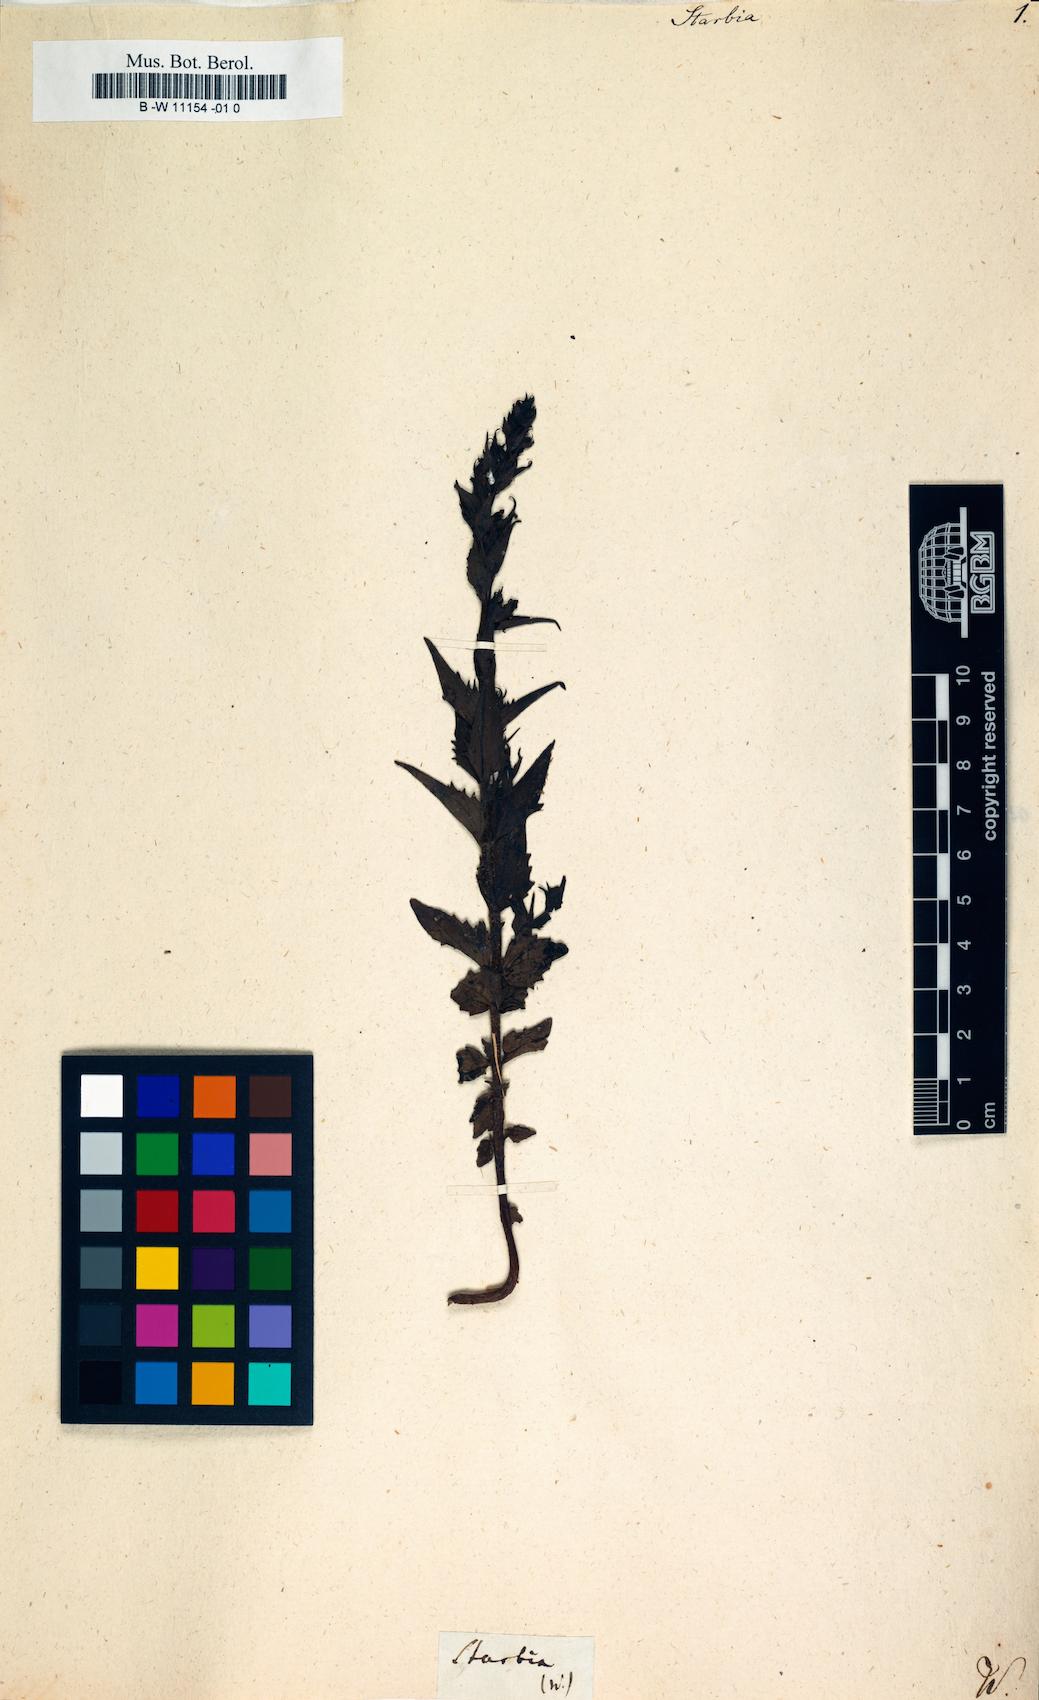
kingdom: Plantae
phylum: Tracheophyta
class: Magnoliopsida
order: Lamiales
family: Orobanchaceae
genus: Alectra
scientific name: Alectra
